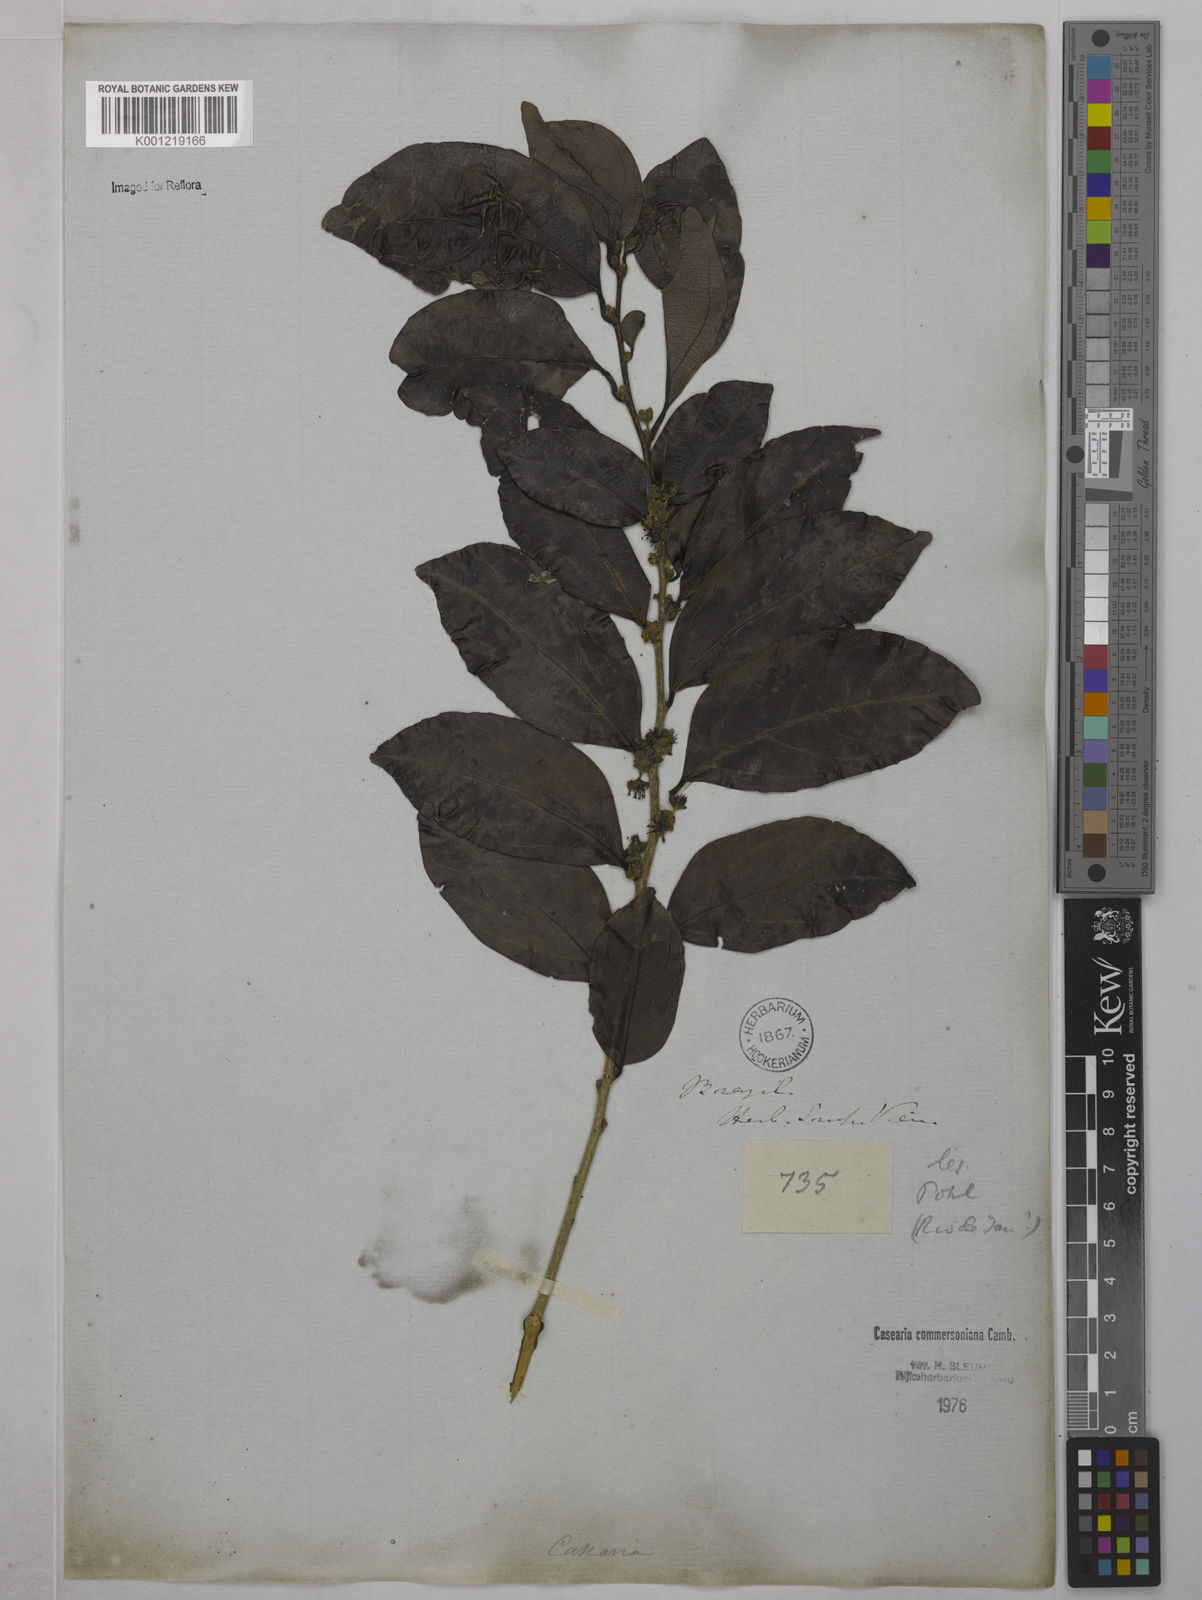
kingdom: Plantae
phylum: Tracheophyta
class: Magnoliopsida
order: Malpighiales
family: Salicaceae
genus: Piparea
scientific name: Piparea dentata
